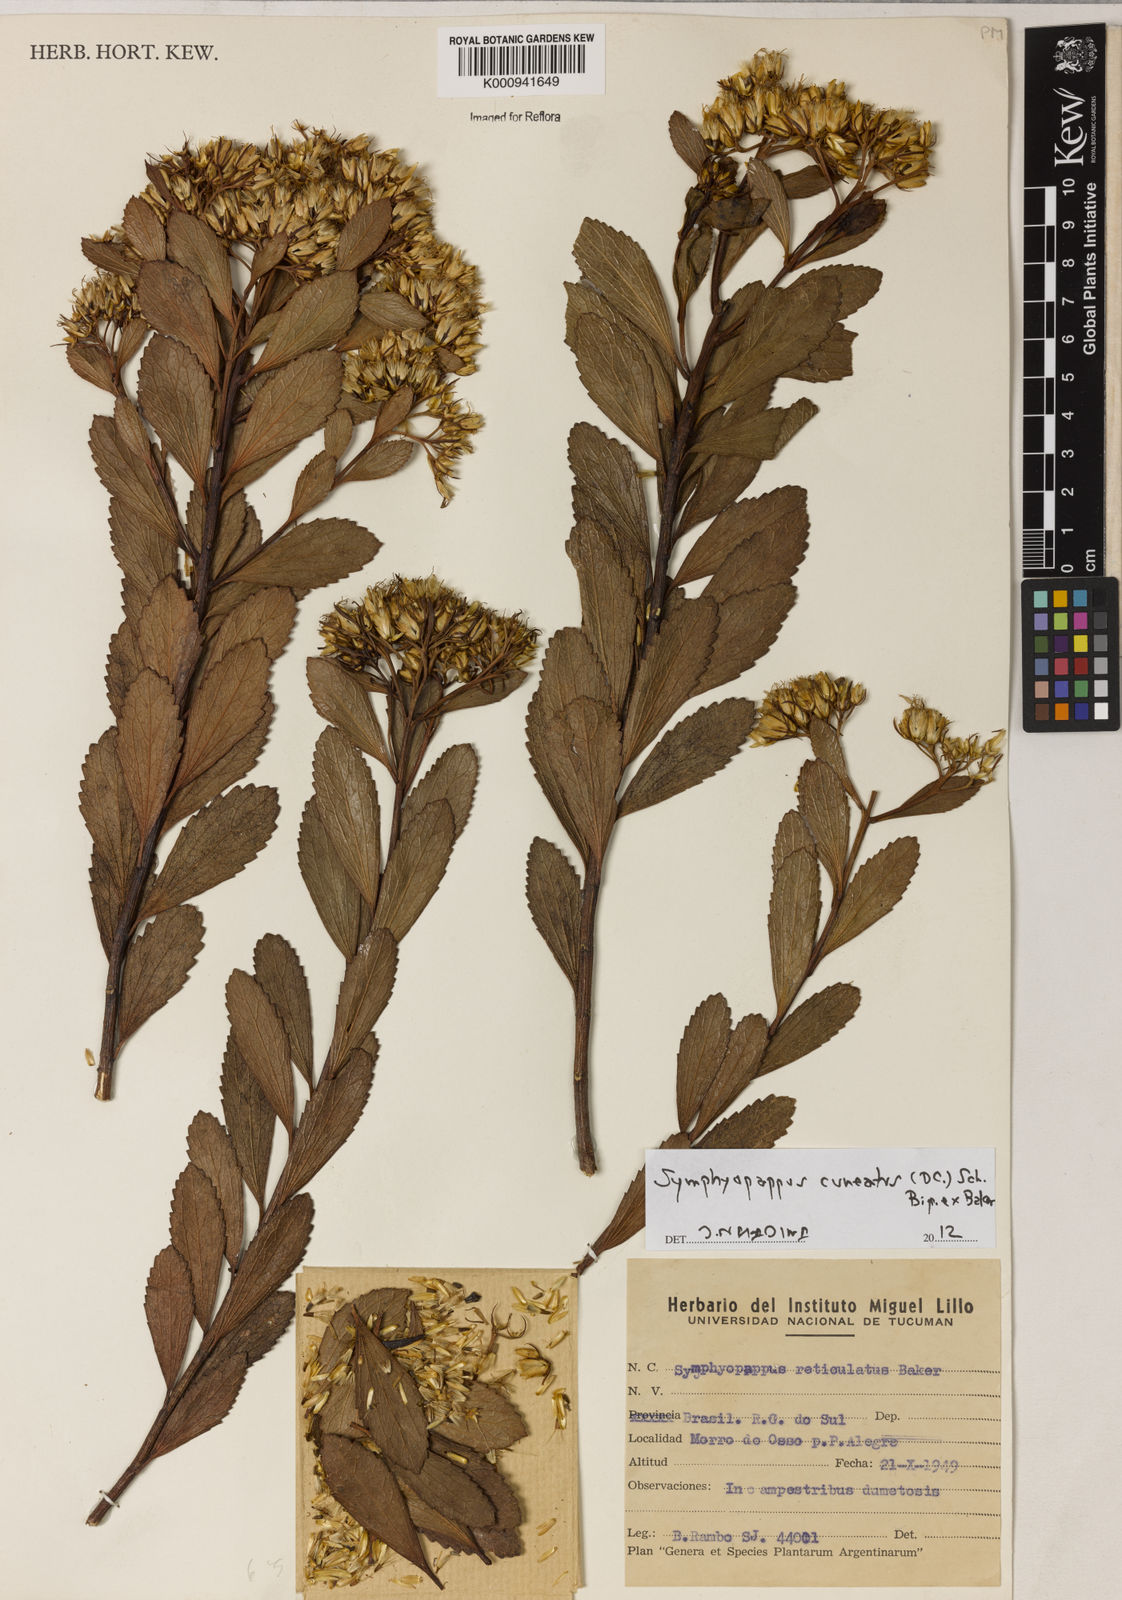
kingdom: Plantae
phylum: Tracheophyta
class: Magnoliopsida
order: Asterales
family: Asteraceae
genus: Symphyopappus
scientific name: Symphyopappus cuneatus
